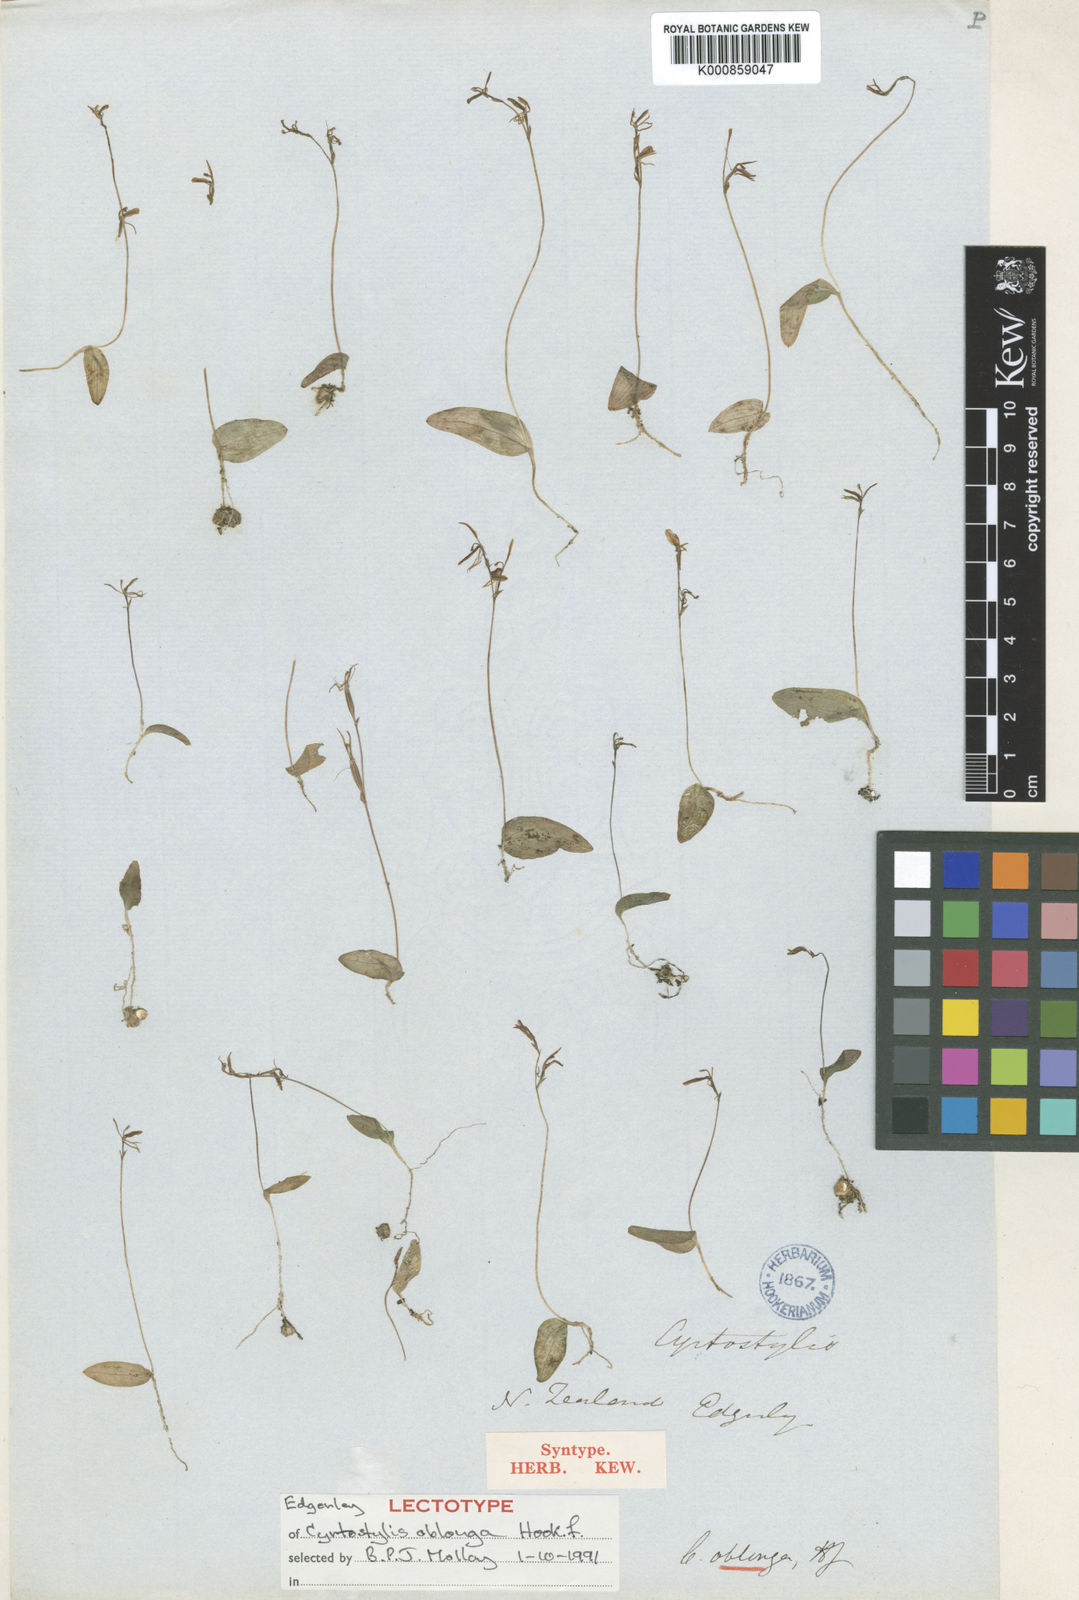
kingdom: Plantae
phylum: Tracheophyta
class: Liliopsida
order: Asparagales
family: Orchidaceae
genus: Cyrtostylis
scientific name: Cyrtostylis oblonga
